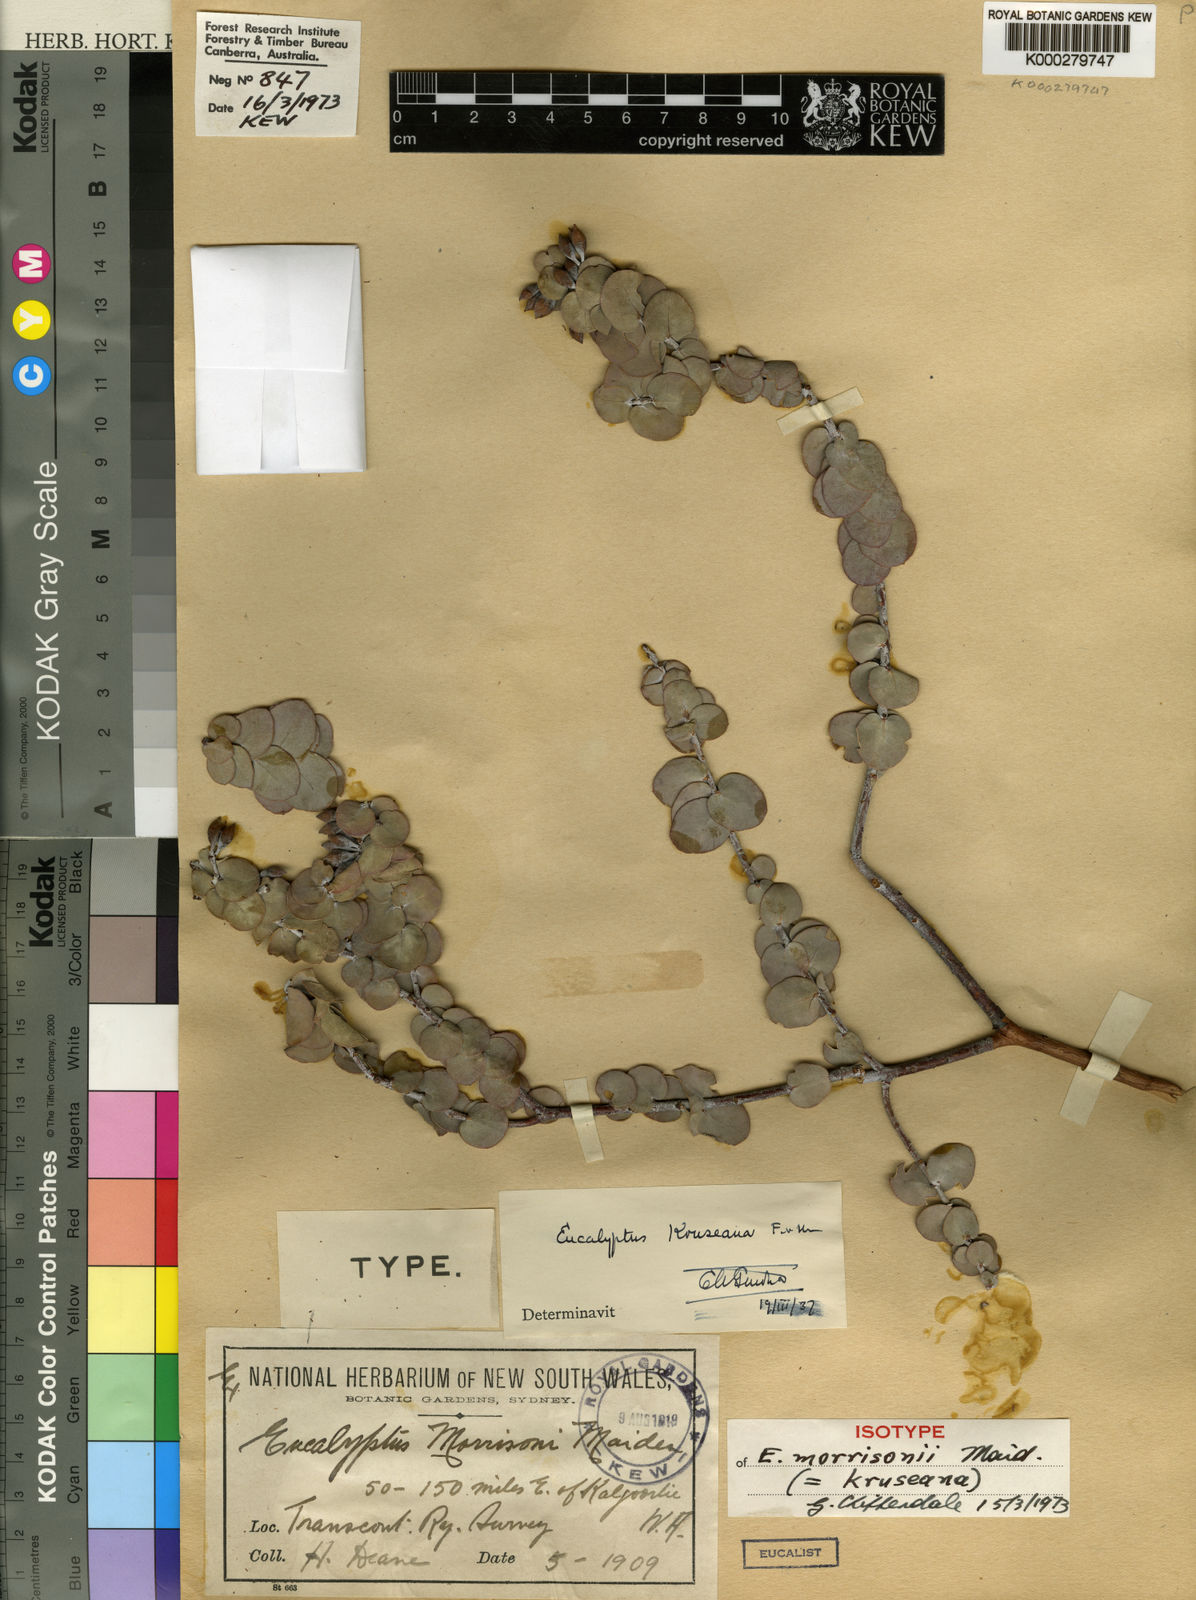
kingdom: Plantae
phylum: Tracheophyta
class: Magnoliopsida
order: Myrtales
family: Myrtaceae
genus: Eucalyptus
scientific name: Eucalyptus kruseana
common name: Book-leaf mallee
